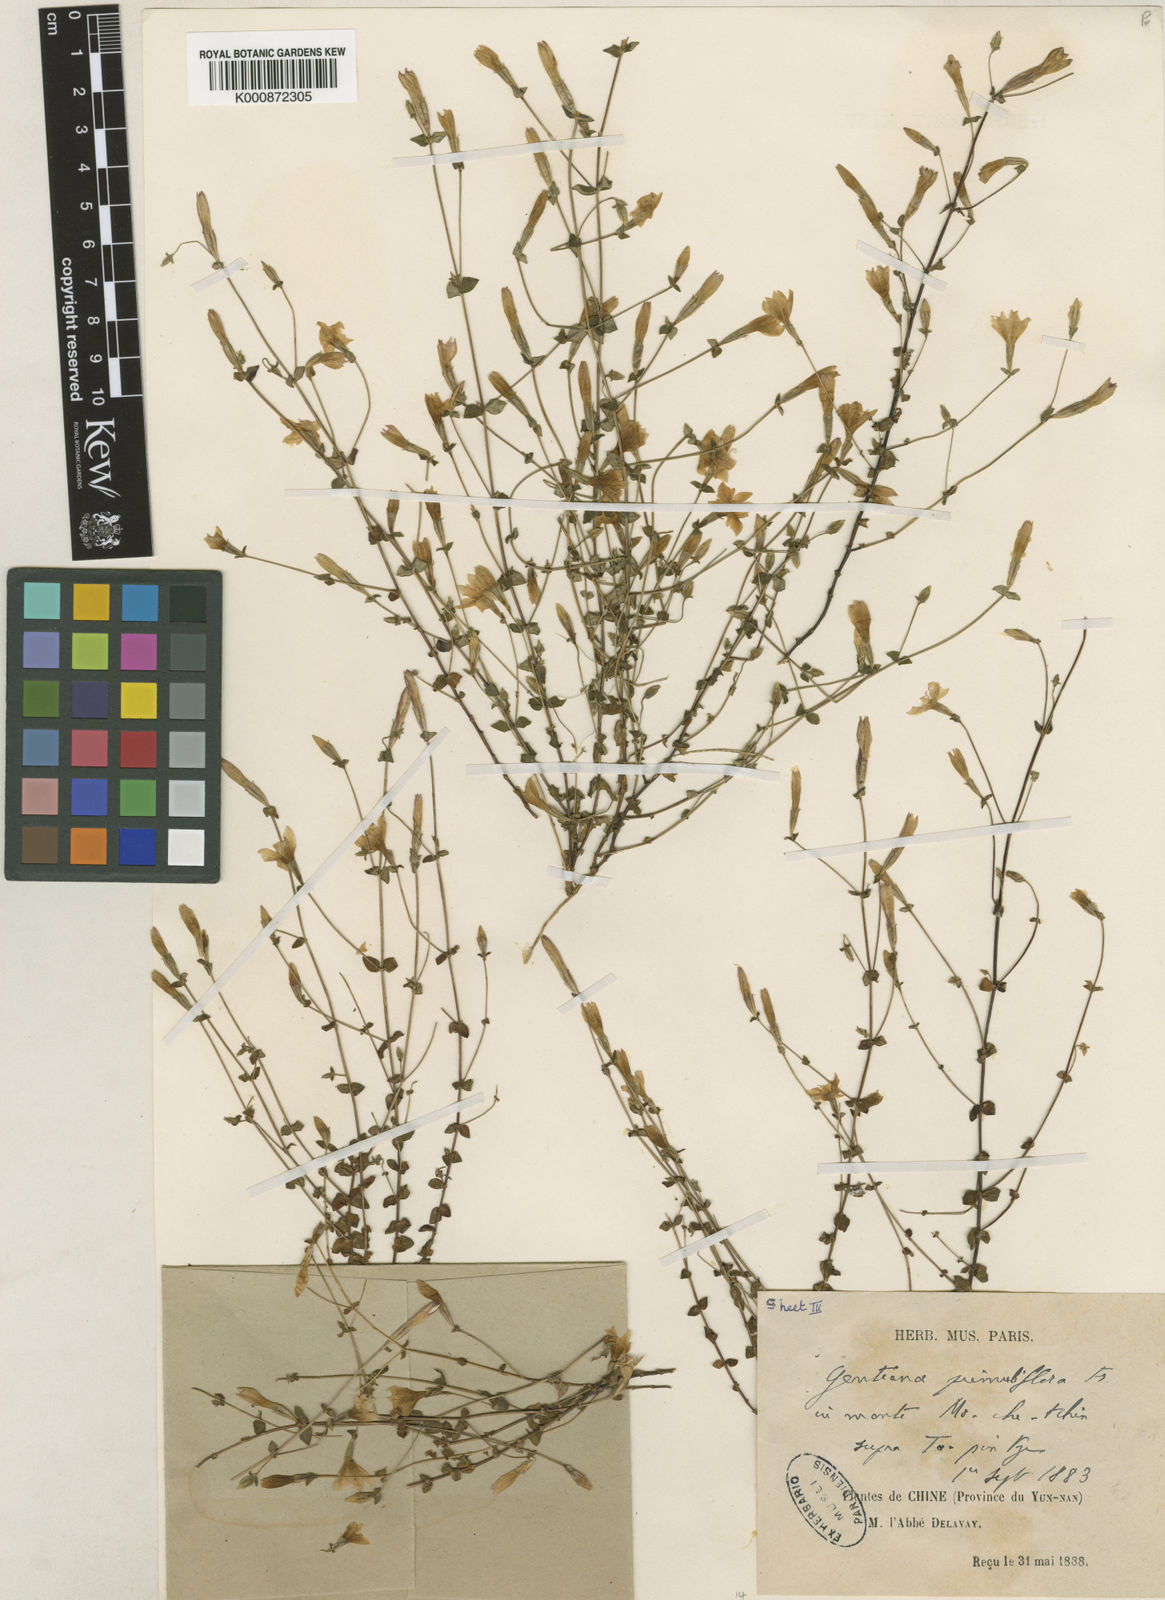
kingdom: Plantae
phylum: Tracheophyta
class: Magnoliopsida
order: Gentianales
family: Gentianaceae
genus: Metagentiana
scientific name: Metagentiana primuliflora
